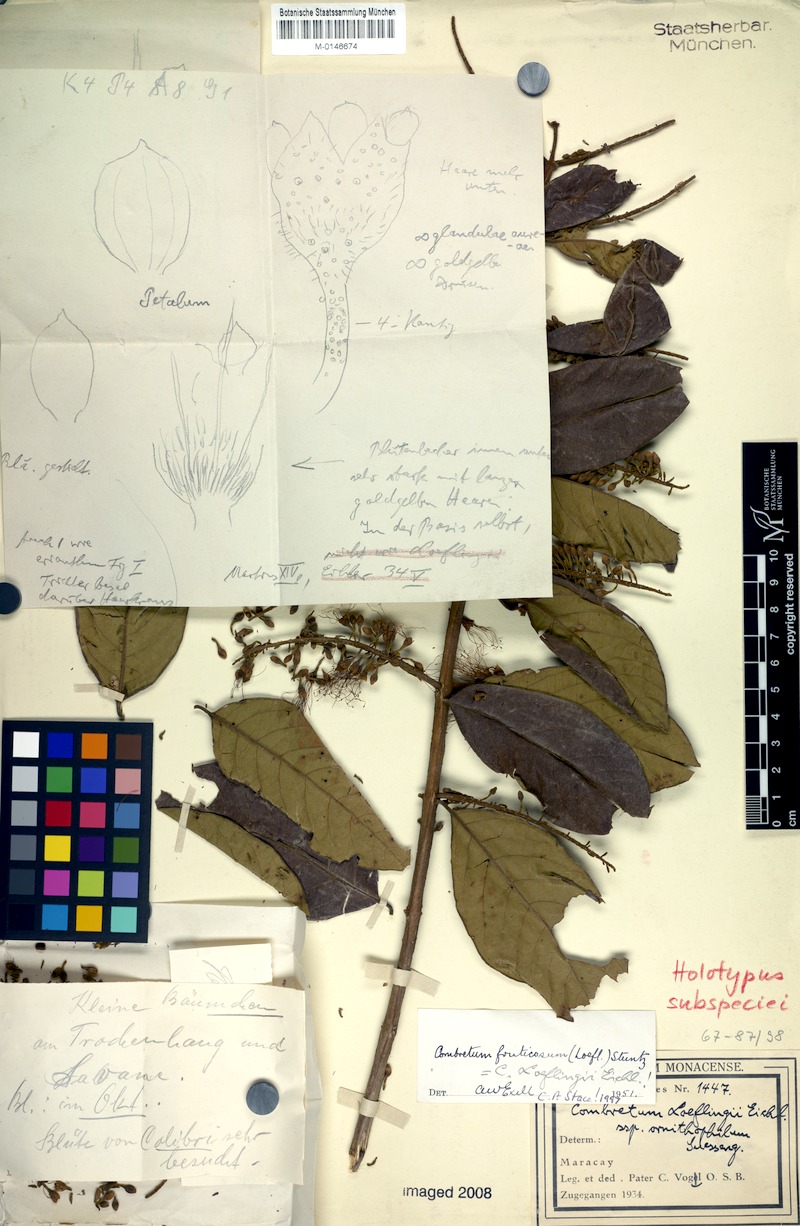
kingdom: Plantae
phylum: Tracheophyta
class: Magnoliopsida
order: Myrtales
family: Combretaceae
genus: Combretum
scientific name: Combretum fruticosum
